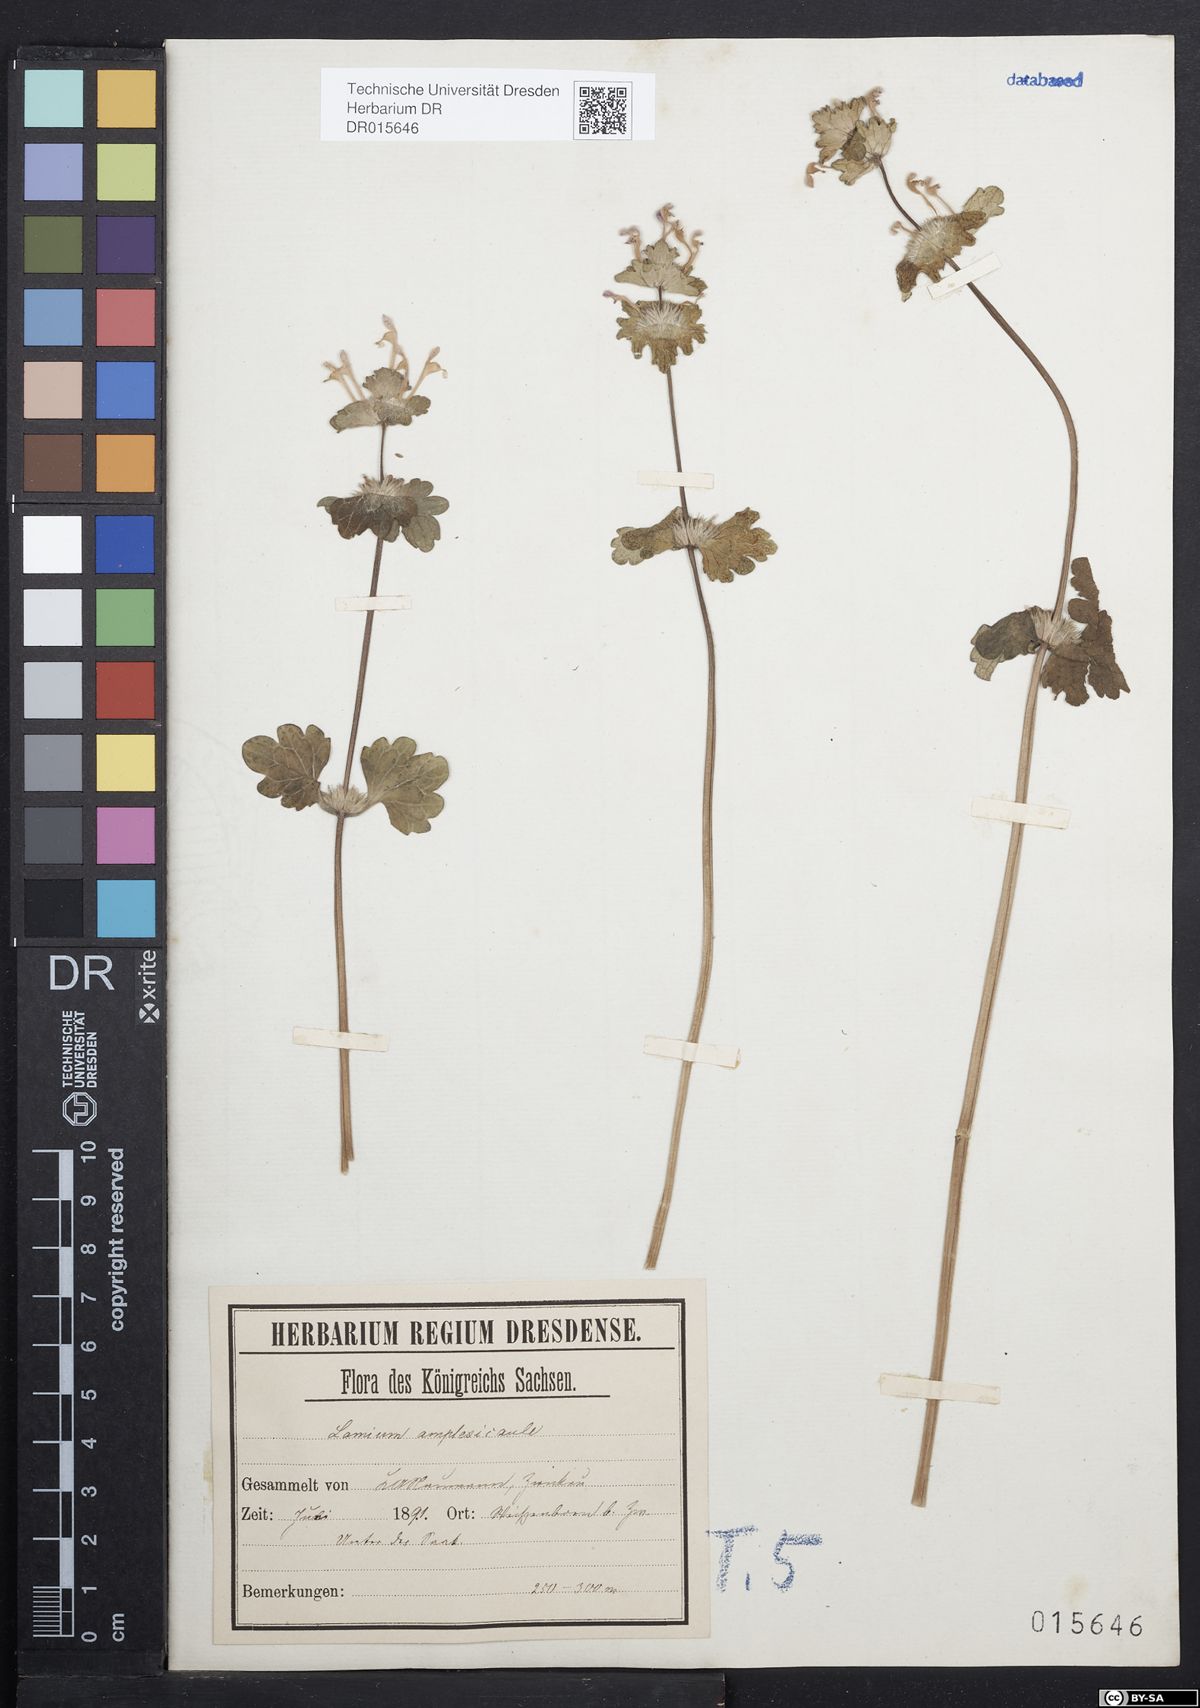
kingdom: Plantae
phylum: Tracheophyta
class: Magnoliopsida
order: Lamiales
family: Lamiaceae
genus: Lamium
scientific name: Lamium amplexicaule
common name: Henbit dead-nettle
